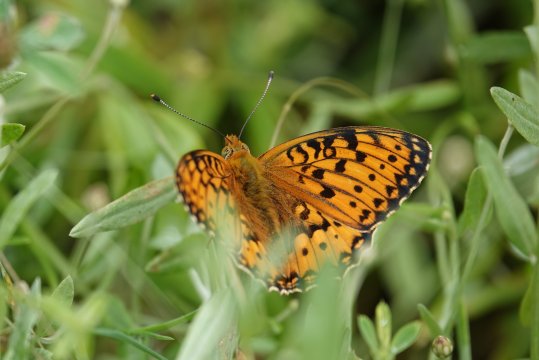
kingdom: Animalia
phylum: Arthropoda
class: Insecta
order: Lepidoptera
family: Nymphalidae
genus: Speyeria
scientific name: Speyeria aglaja
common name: Dark Green Fritillary
